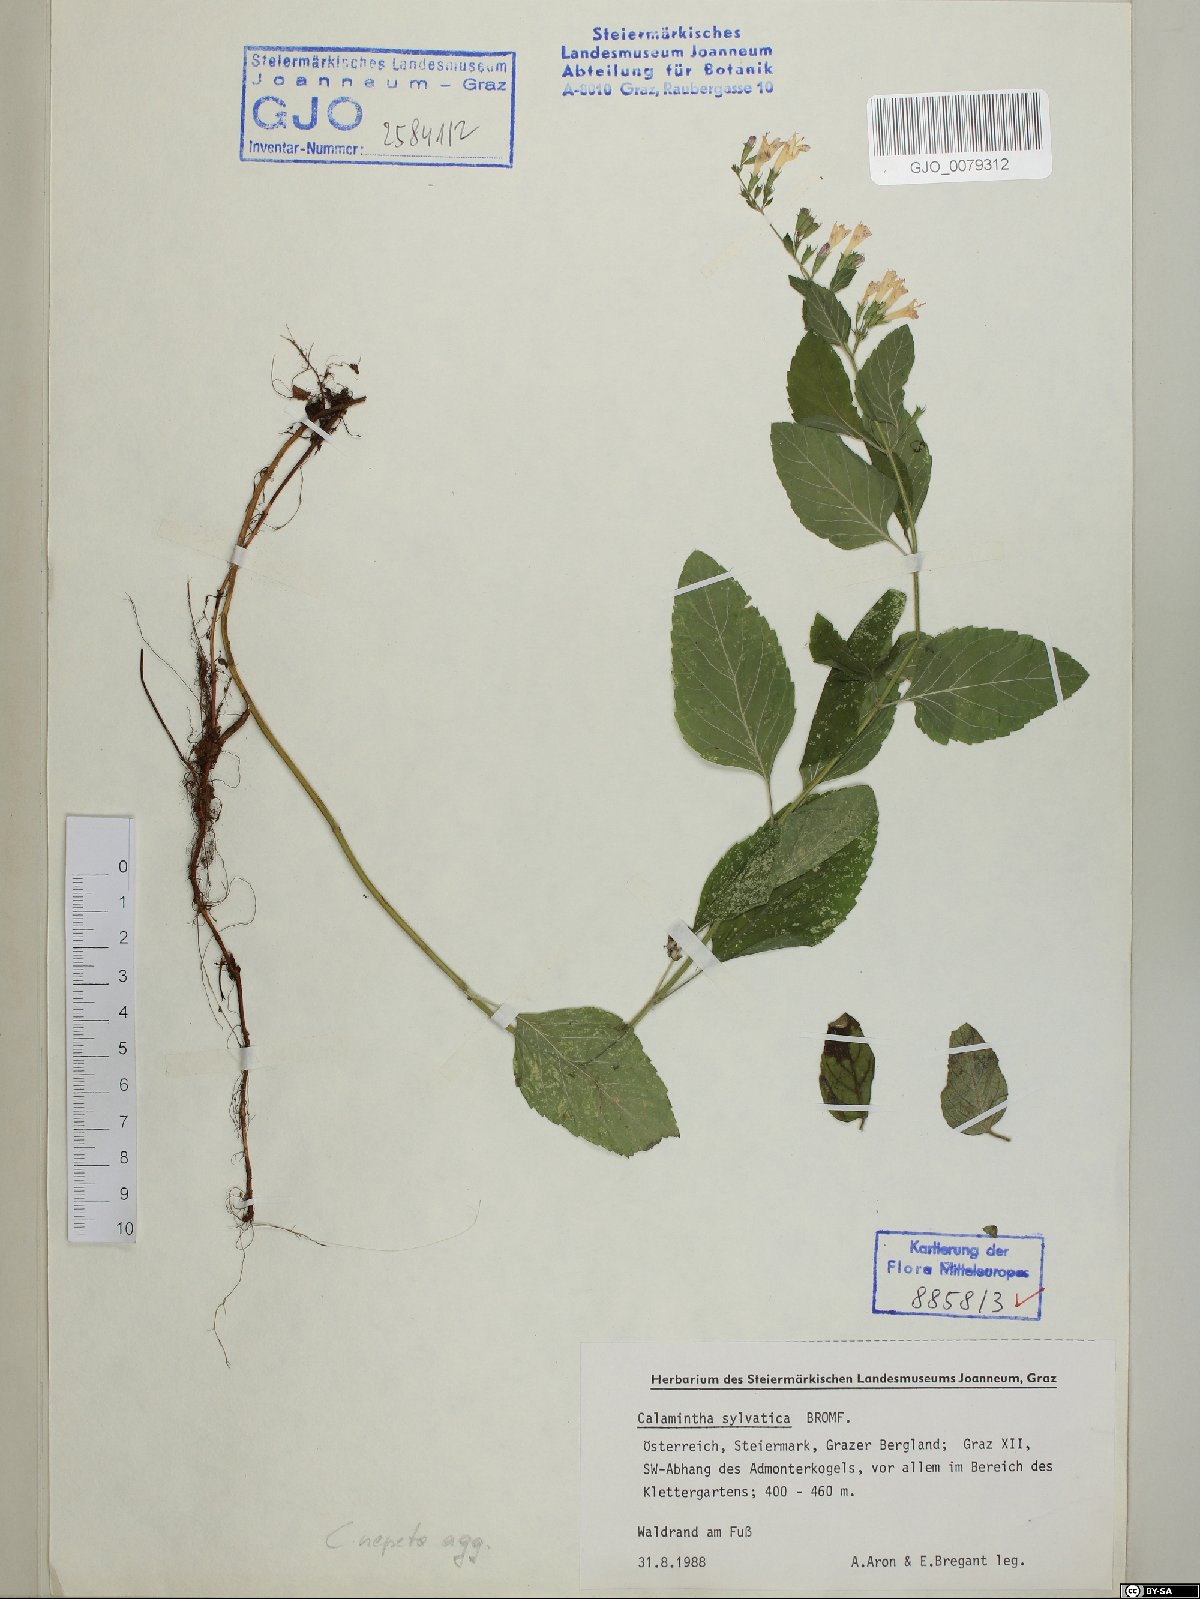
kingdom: Plantae
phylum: Tracheophyta
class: Magnoliopsida
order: Lamiales
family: Lamiaceae
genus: Clinopodium
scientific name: Clinopodium menthifolium
